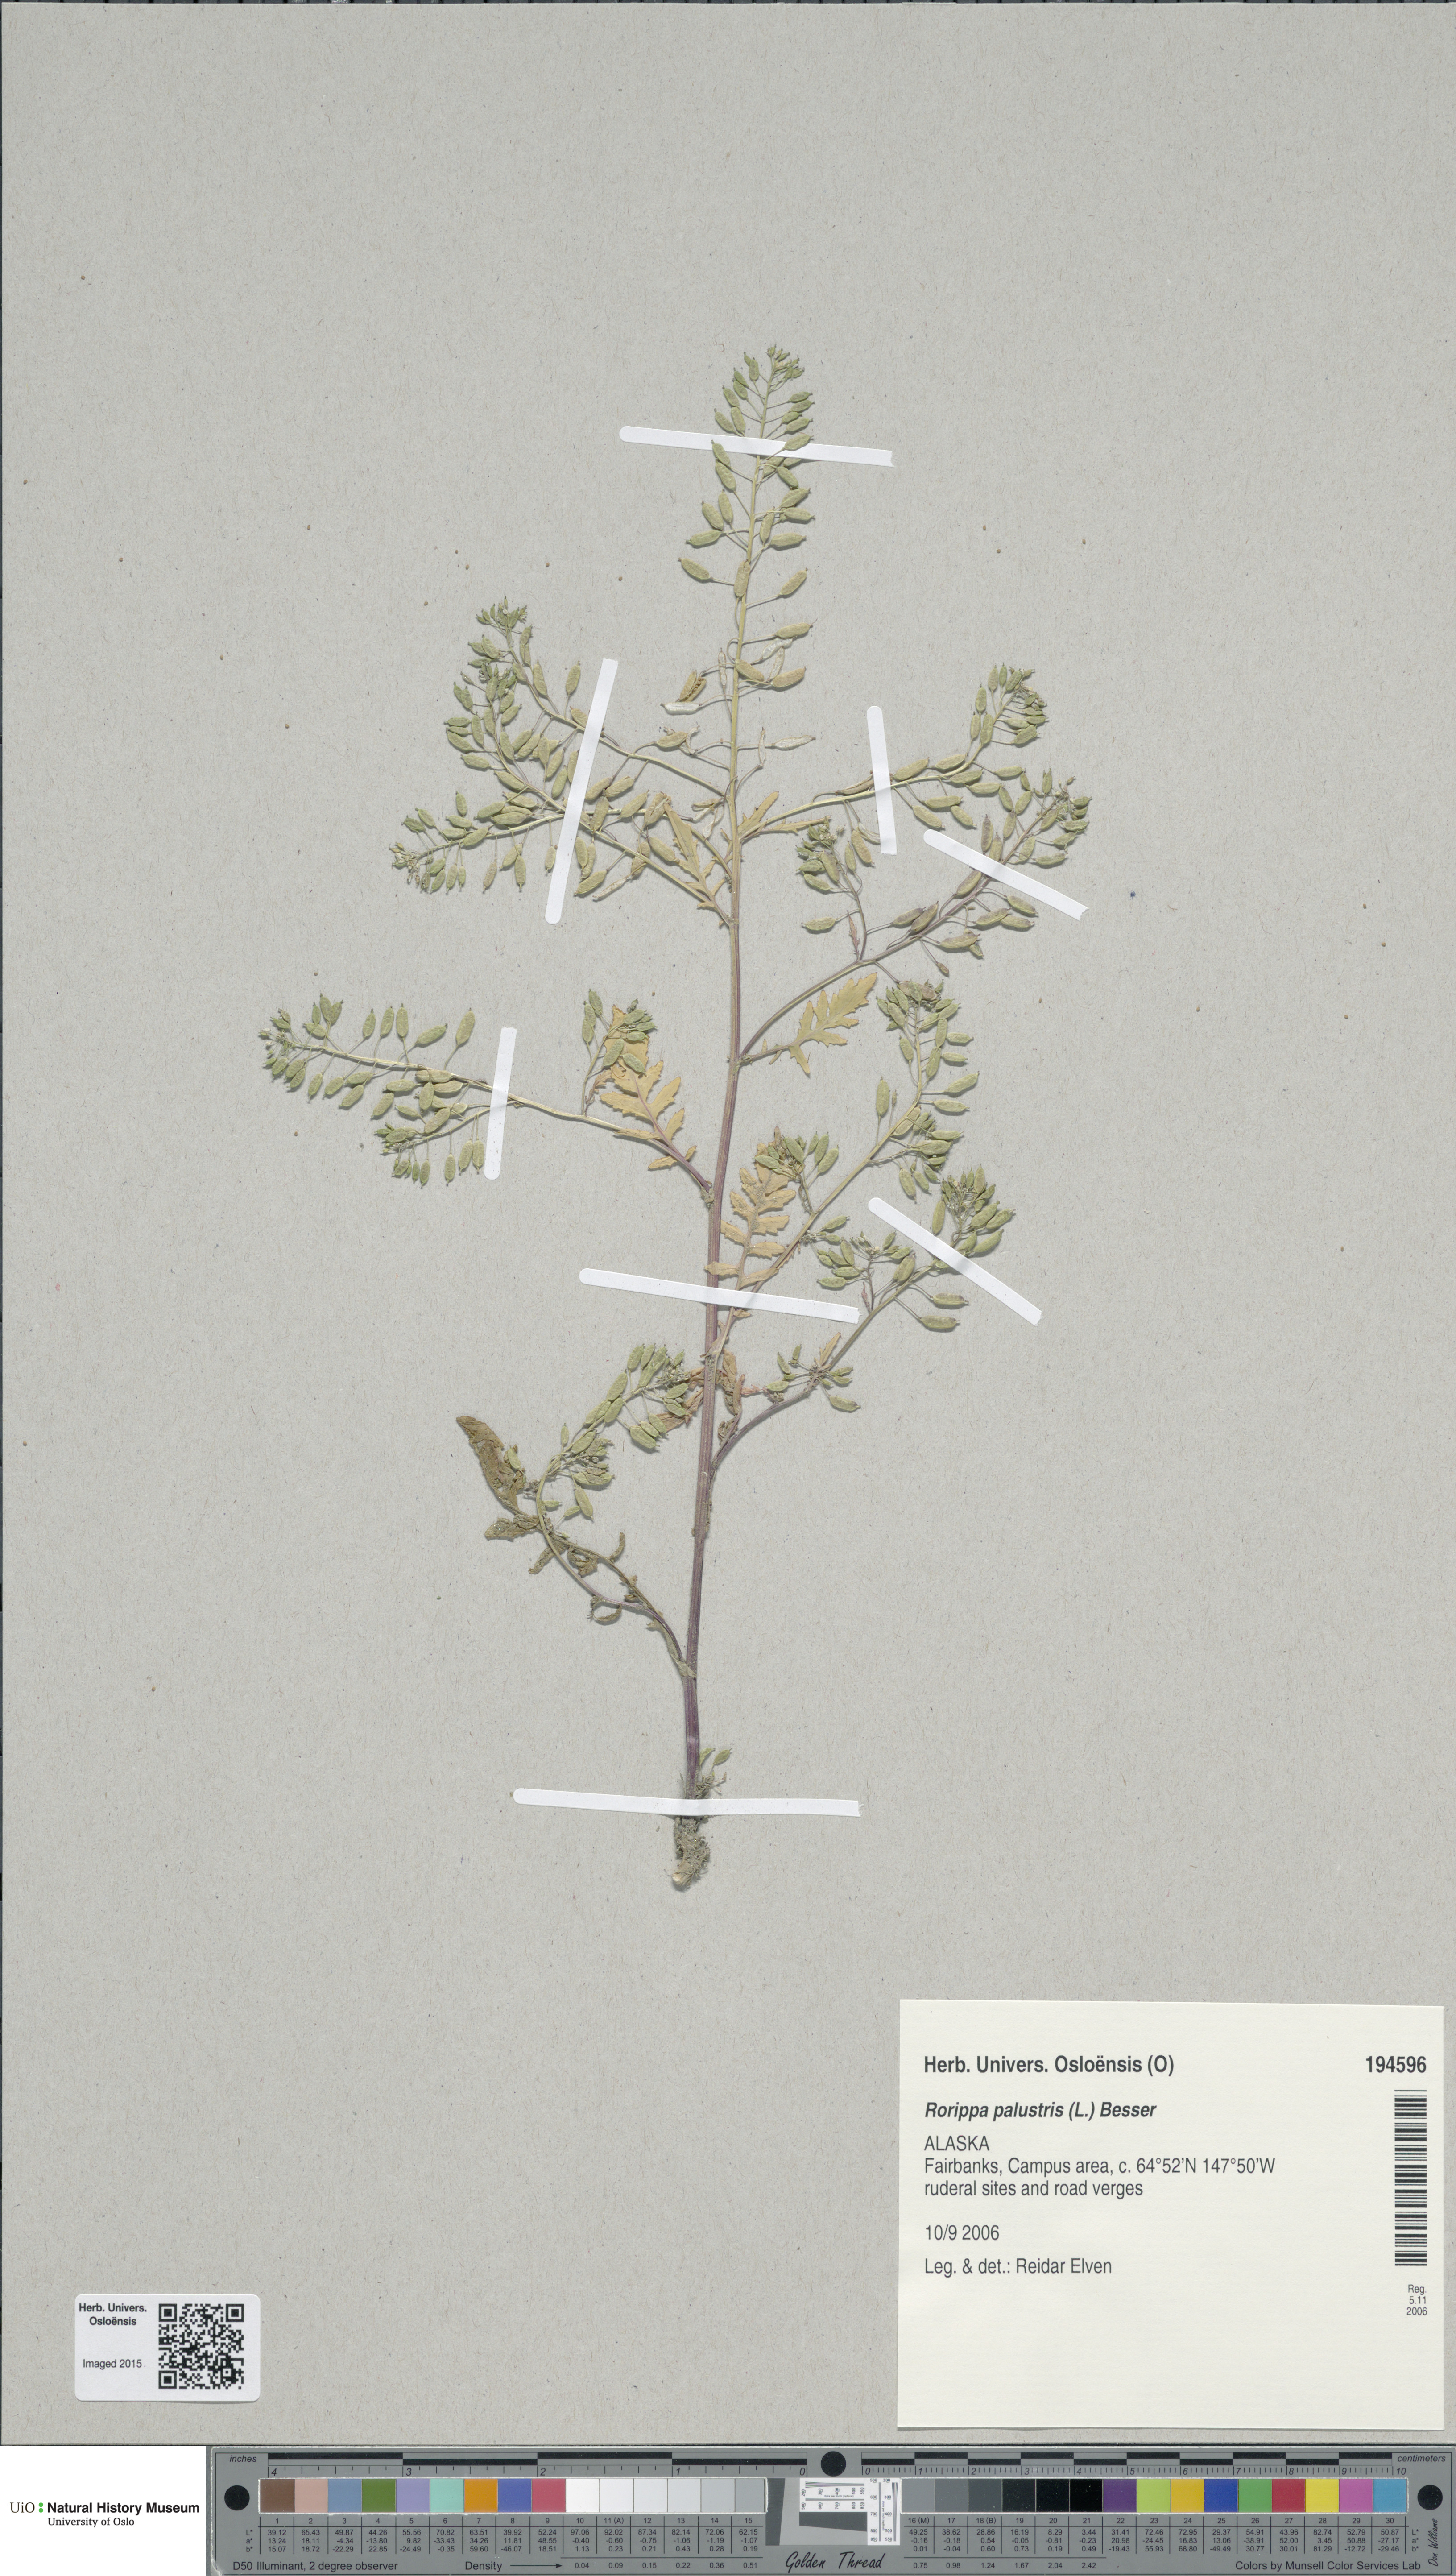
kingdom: Plantae
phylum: Tracheophyta
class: Magnoliopsida
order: Brassicales
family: Brassicaceae
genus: Rorippa
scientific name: Rorippa palustris
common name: Marsh yellow-cress
